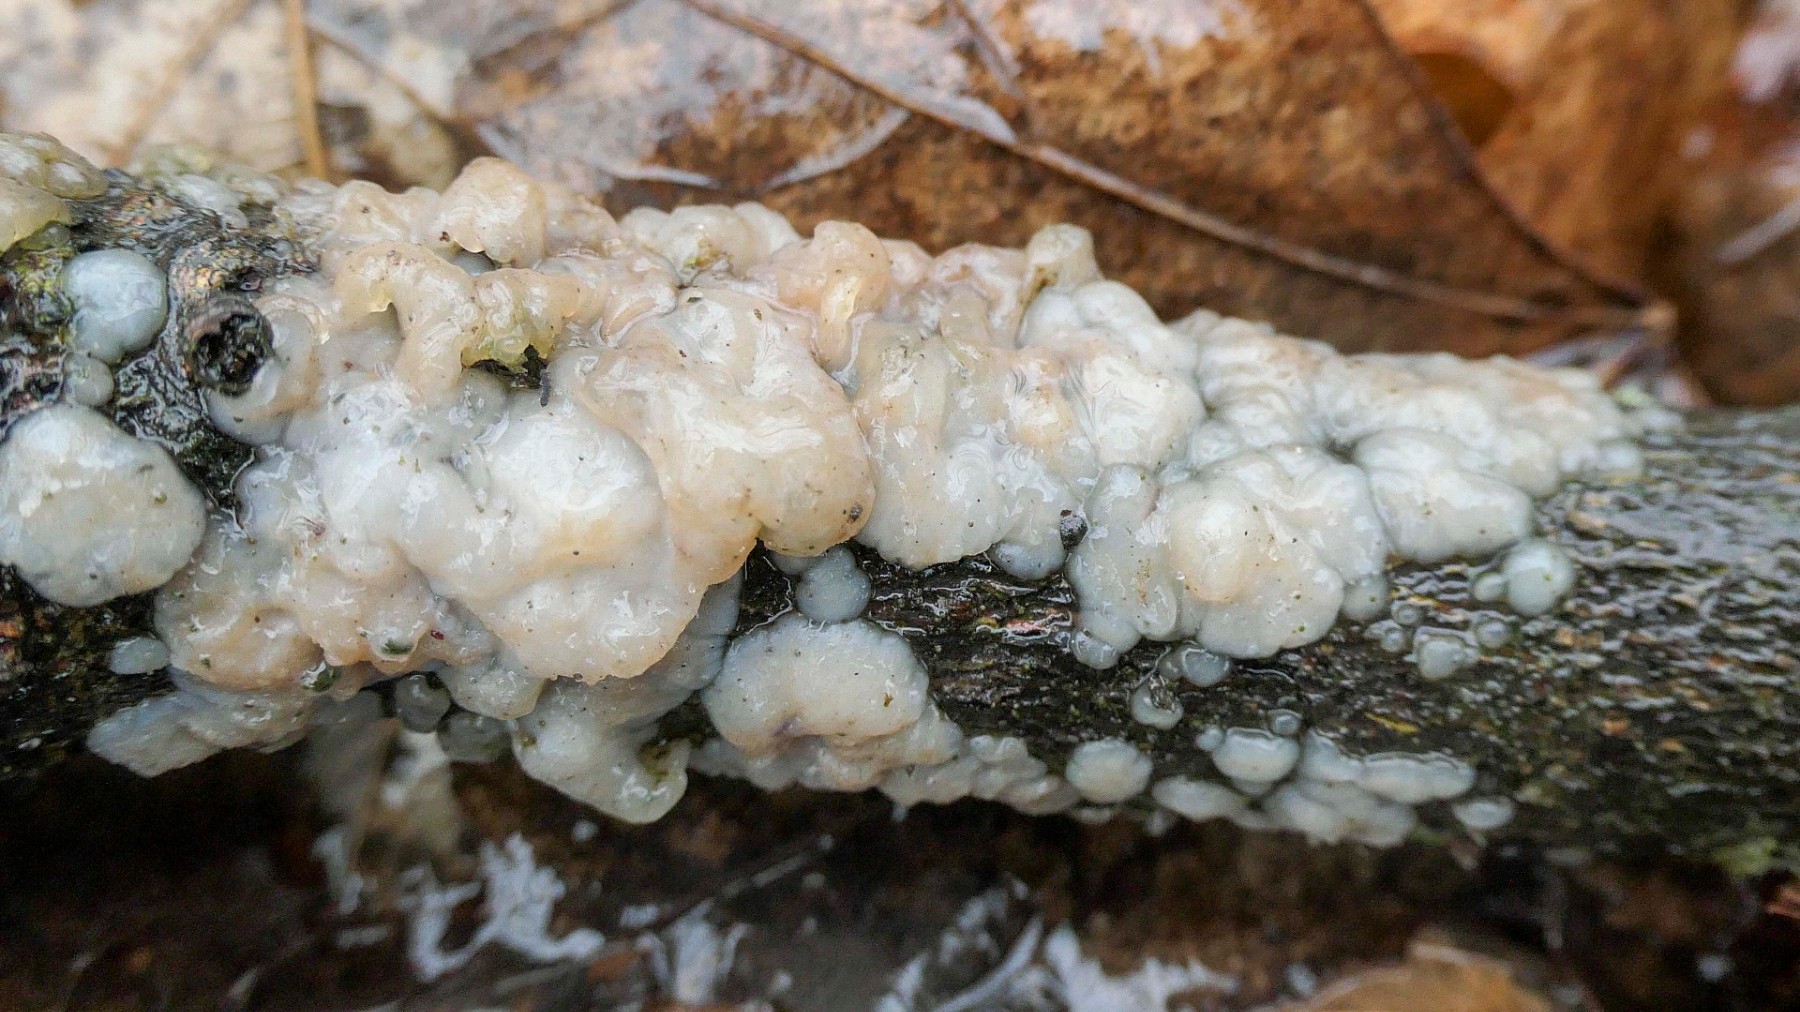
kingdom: Fungi
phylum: Basidiomycota
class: Agaricomycetes
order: Auriculariales
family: Auriculariaceae
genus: Exidia
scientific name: Exidia thuretiana
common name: hvidlig bævretop
